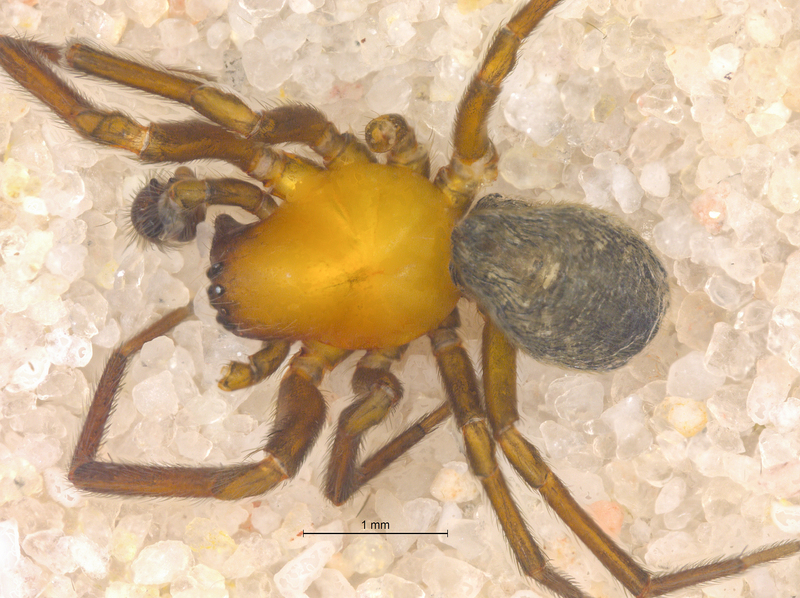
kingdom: Animalia
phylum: Arthropoda
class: Arachnida
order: Araneae
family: Titanoecidae
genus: Titanoeca
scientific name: Titanoeca spominima
